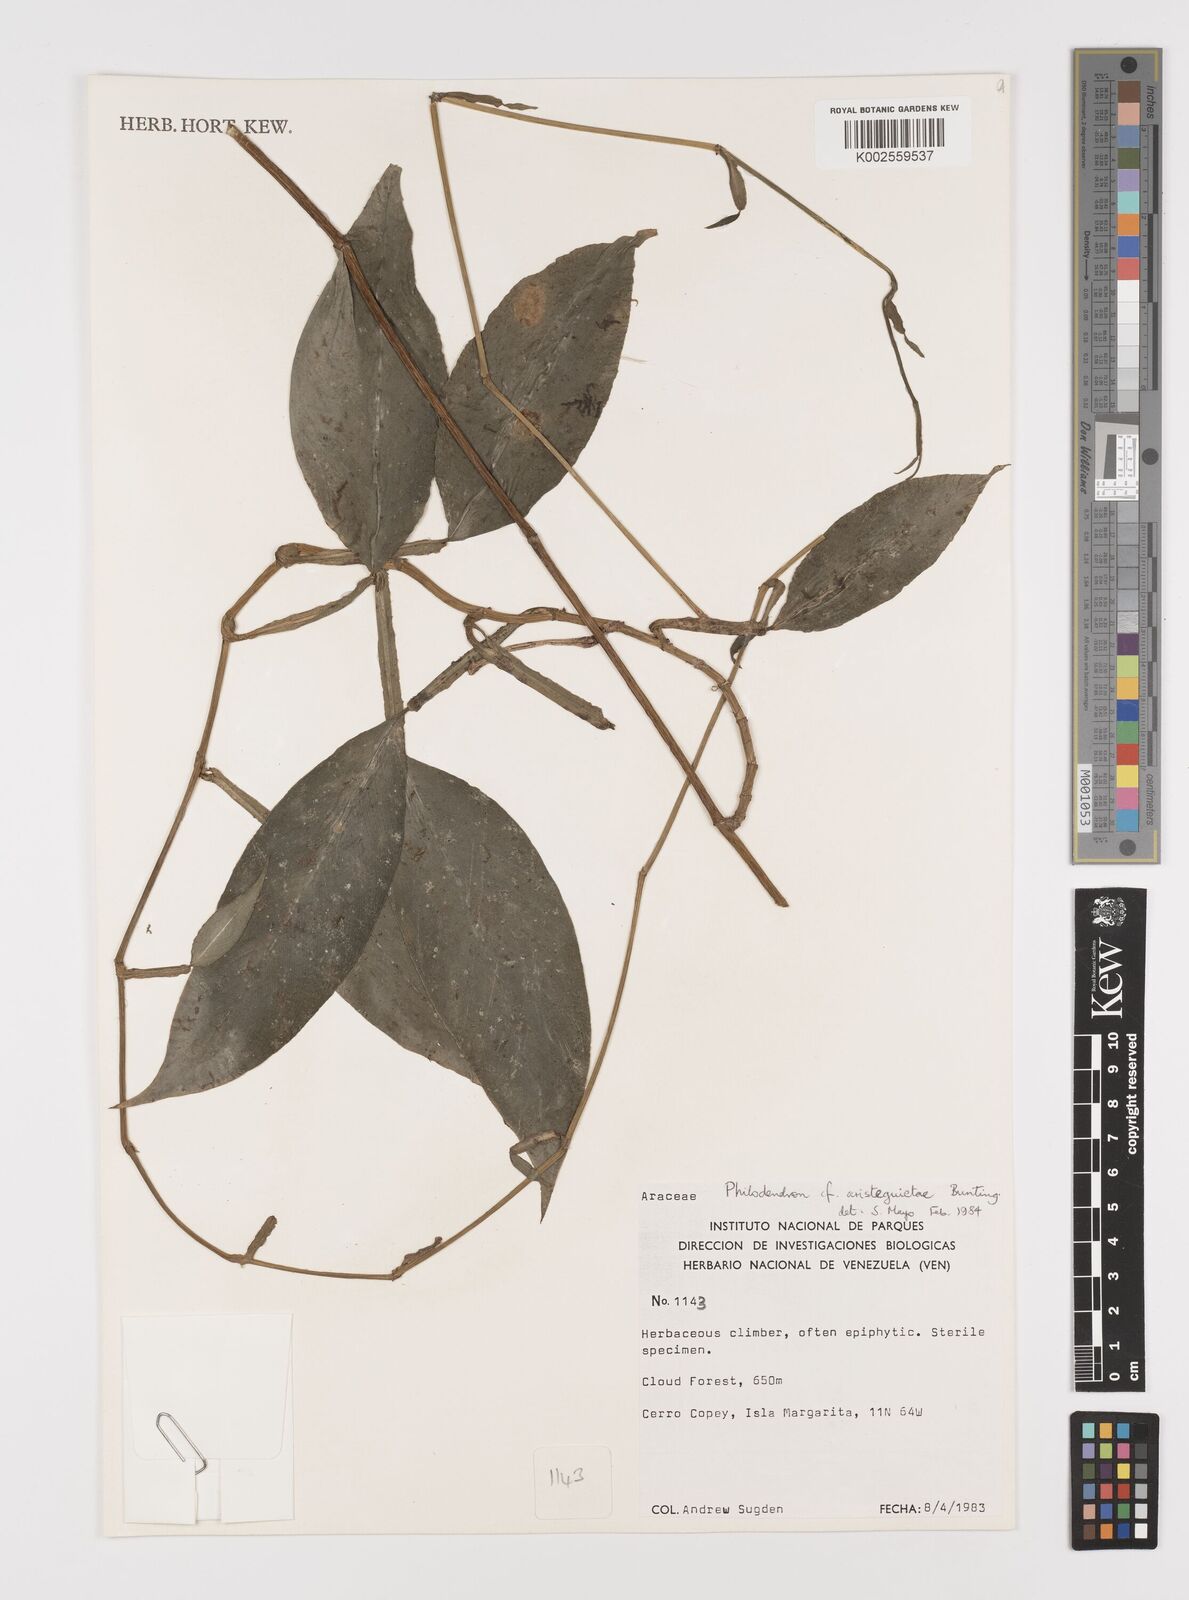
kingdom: Plantae
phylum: Tracheophyta
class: Liliopsida
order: Alismatales
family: Araceae
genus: Philodendron
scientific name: Philodendron aristeguietae
